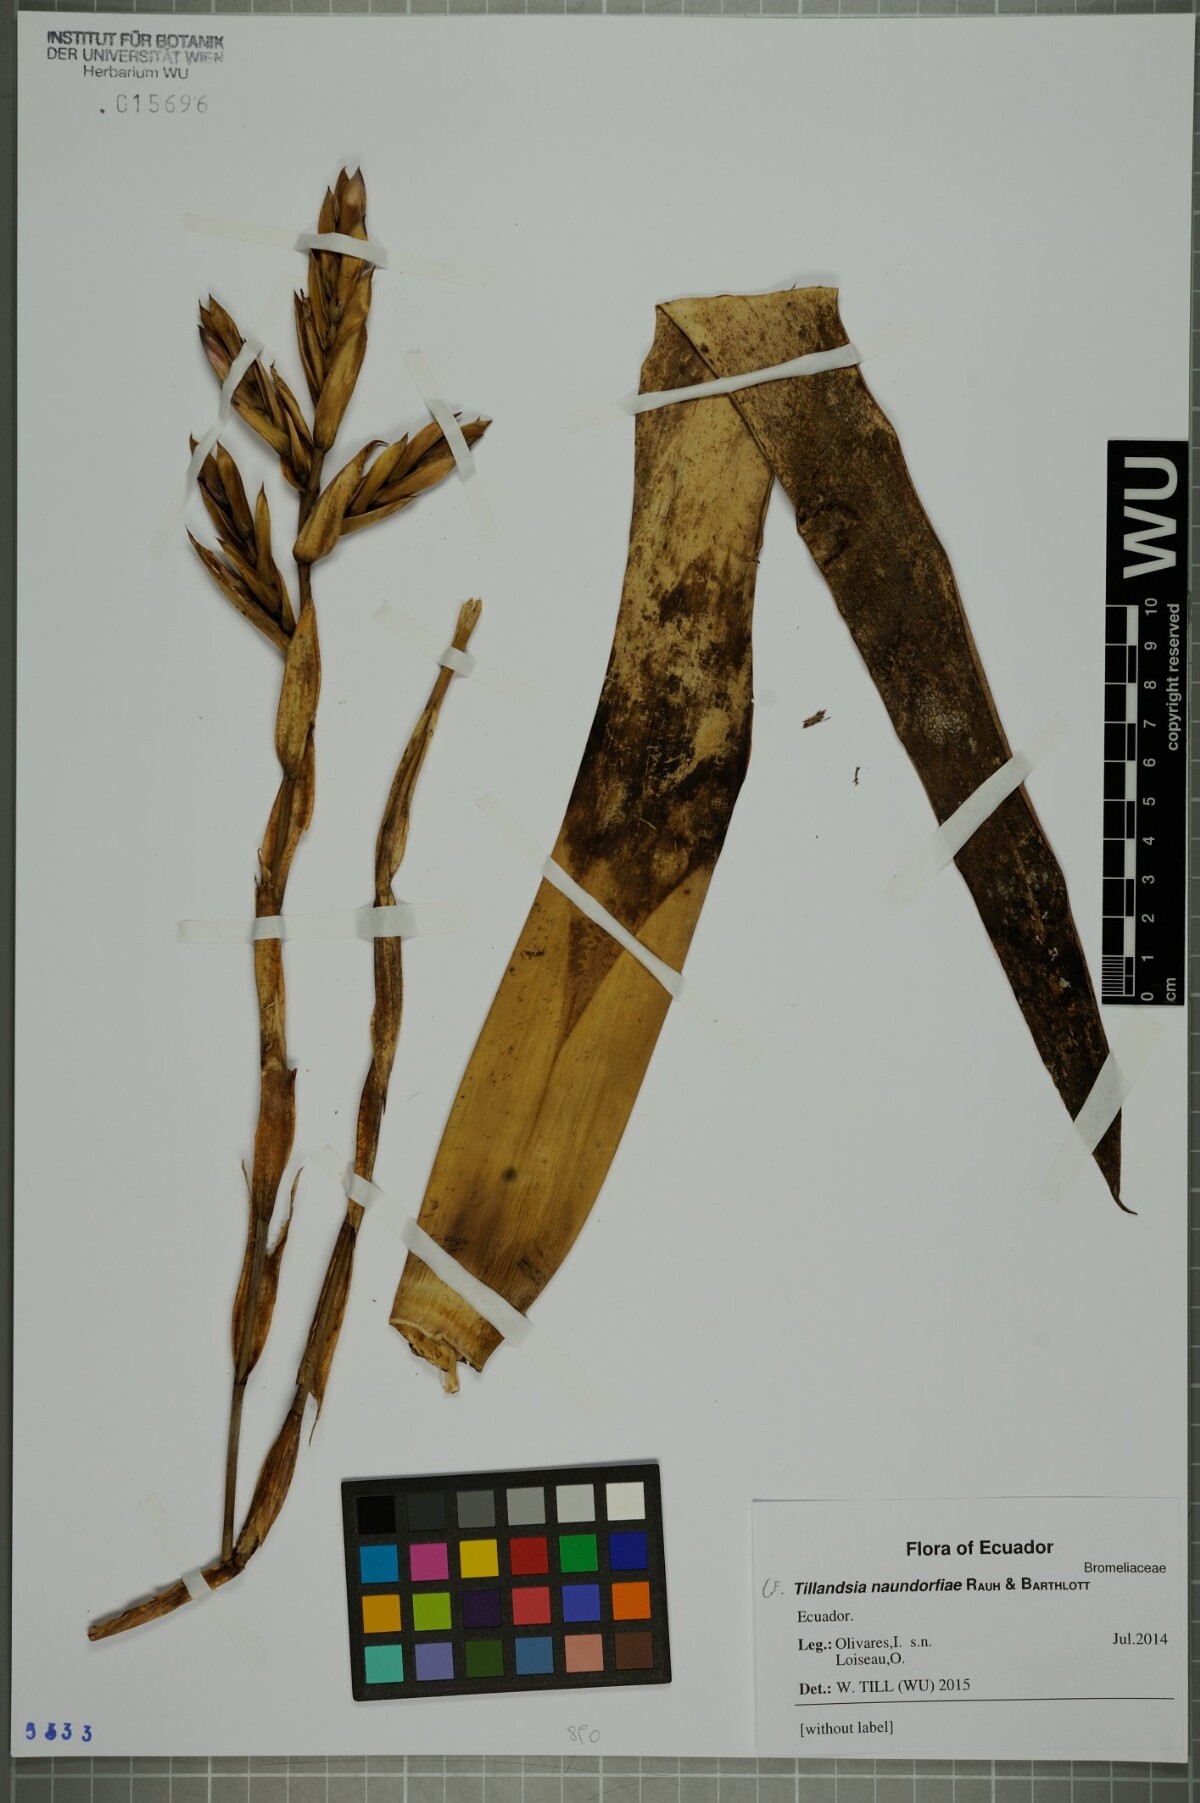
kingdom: Plantae
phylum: Tracheophyta
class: Liliopsida
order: Poales
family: Bromeliaceae
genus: Tillandsia
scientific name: Tillandsia stenoura
